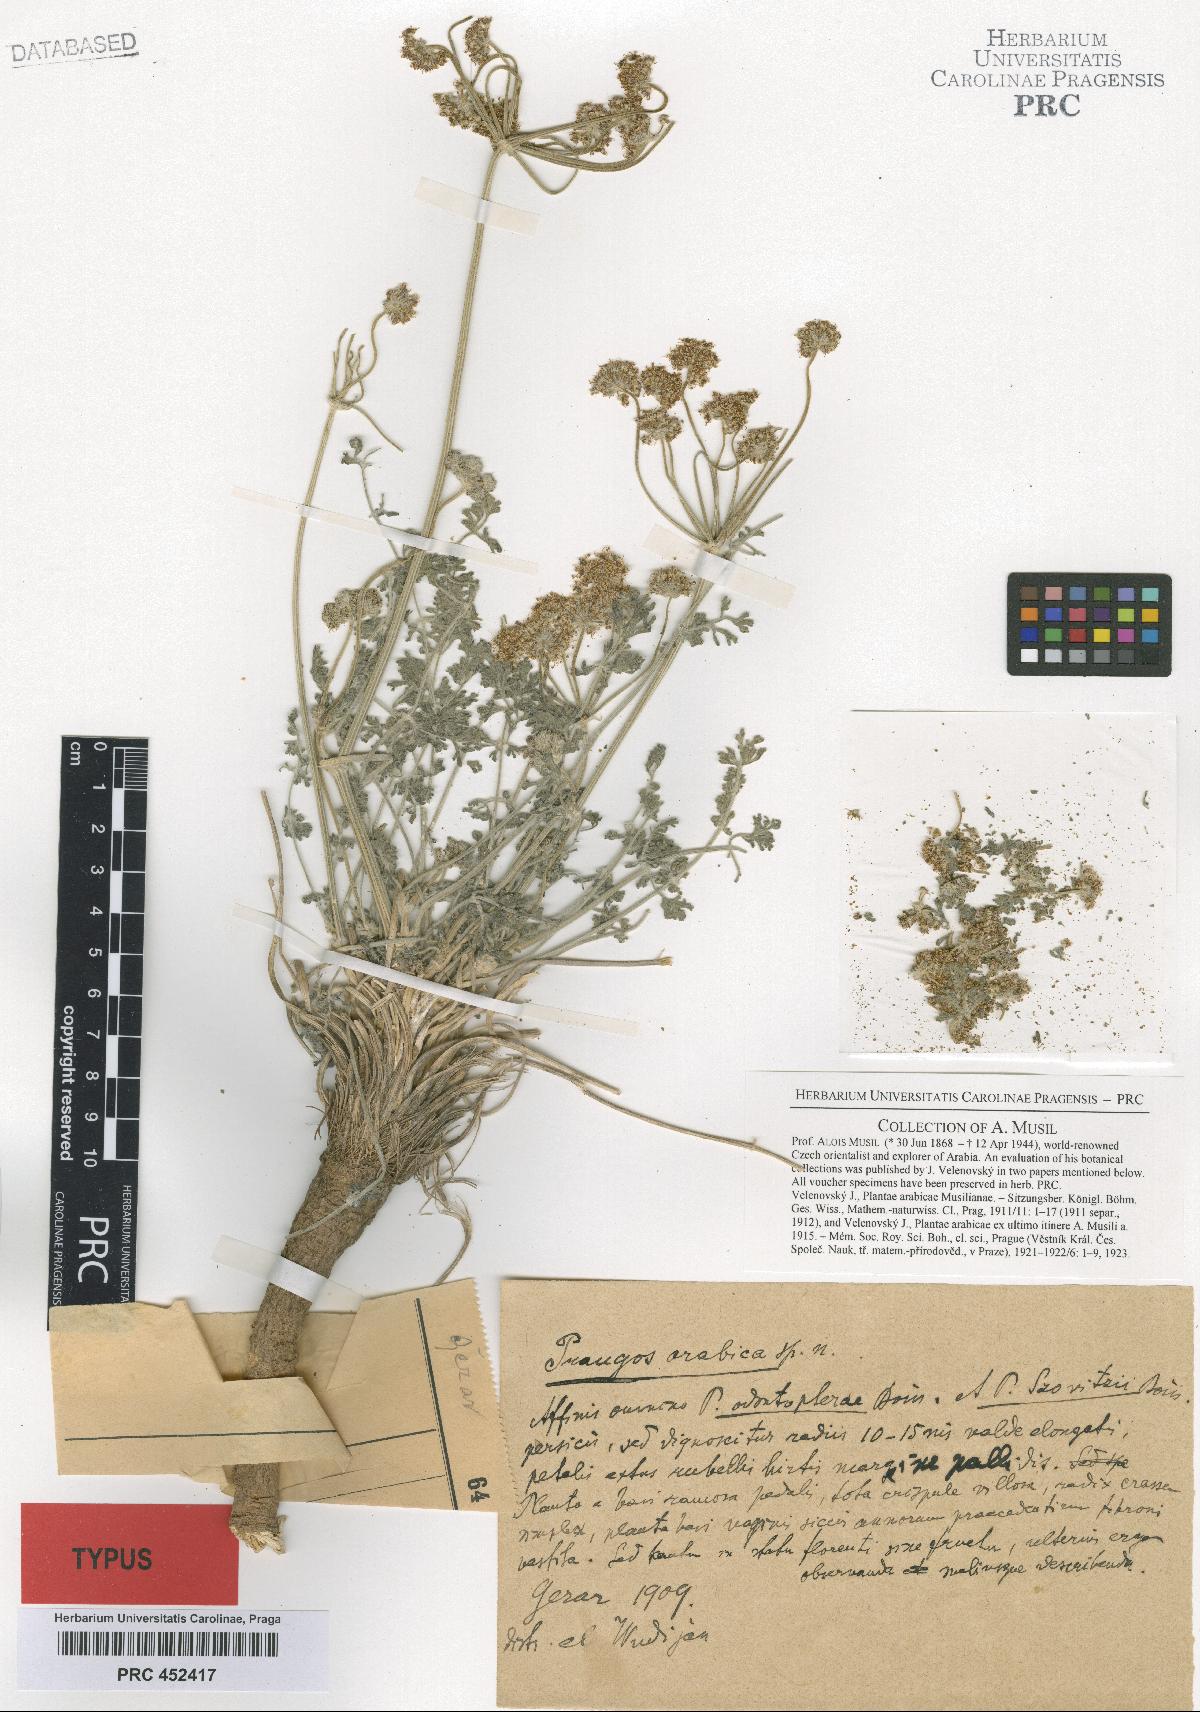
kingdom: Plantae
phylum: Tracheophyta
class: Magnoliopsida
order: Apiales
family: Apiaceae
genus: Prangos
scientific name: Prangos acaulis
